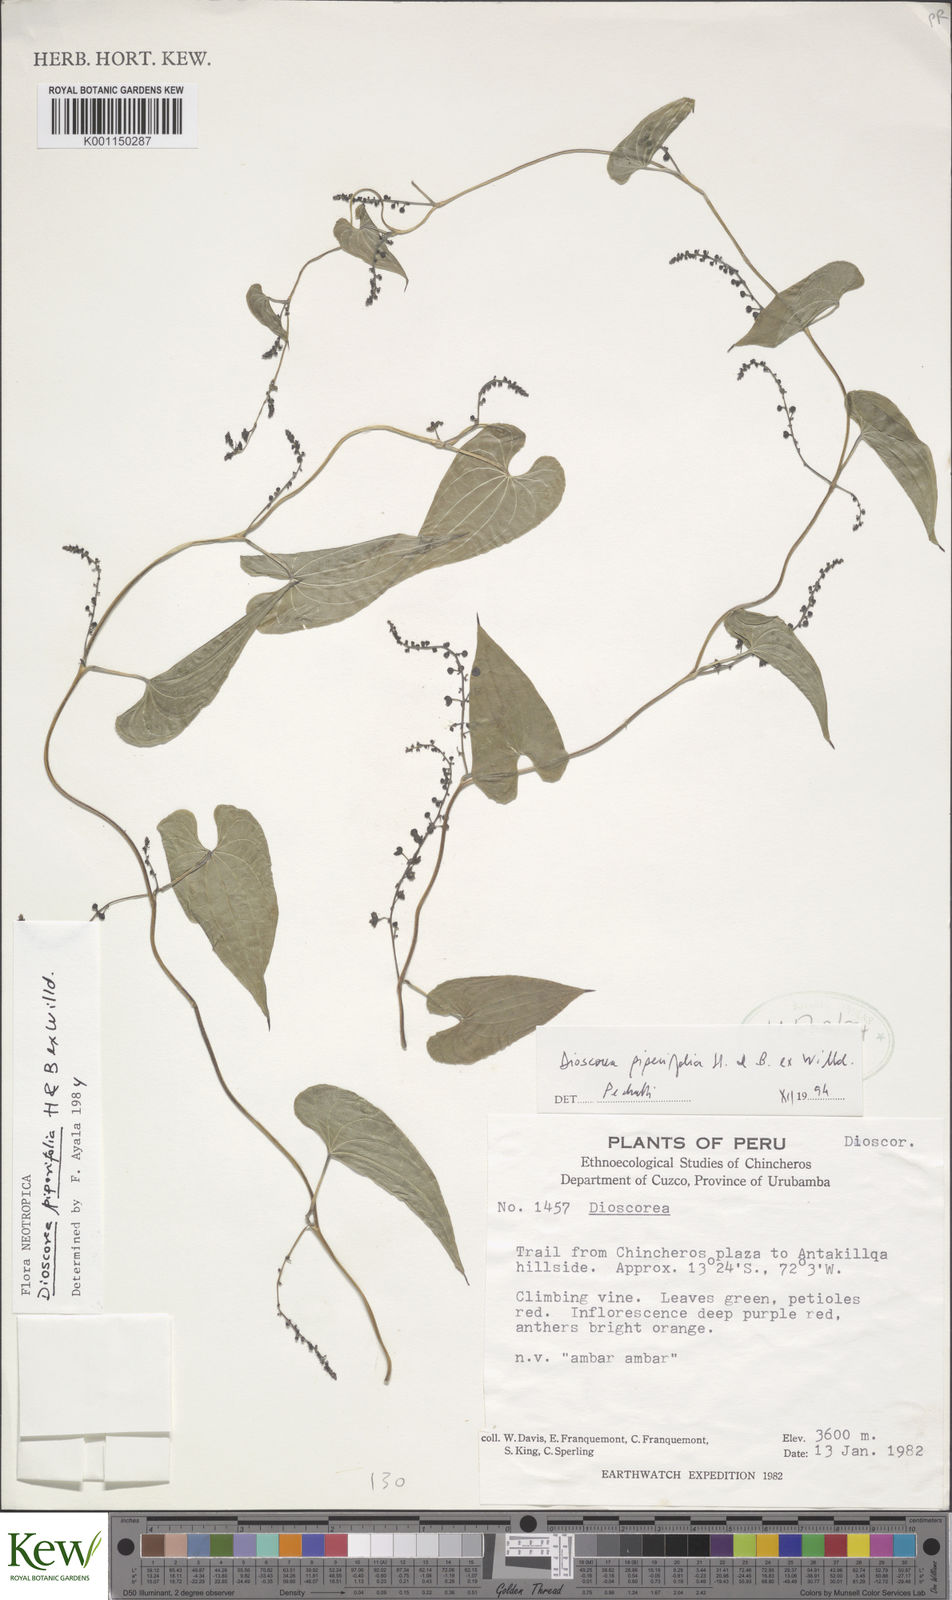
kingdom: Plantae
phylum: Tracheophyta
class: Liliopsida
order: Dioscoreales
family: Dioscoreaceae
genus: Dioscorea
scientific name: Dioscorea piperifolia
